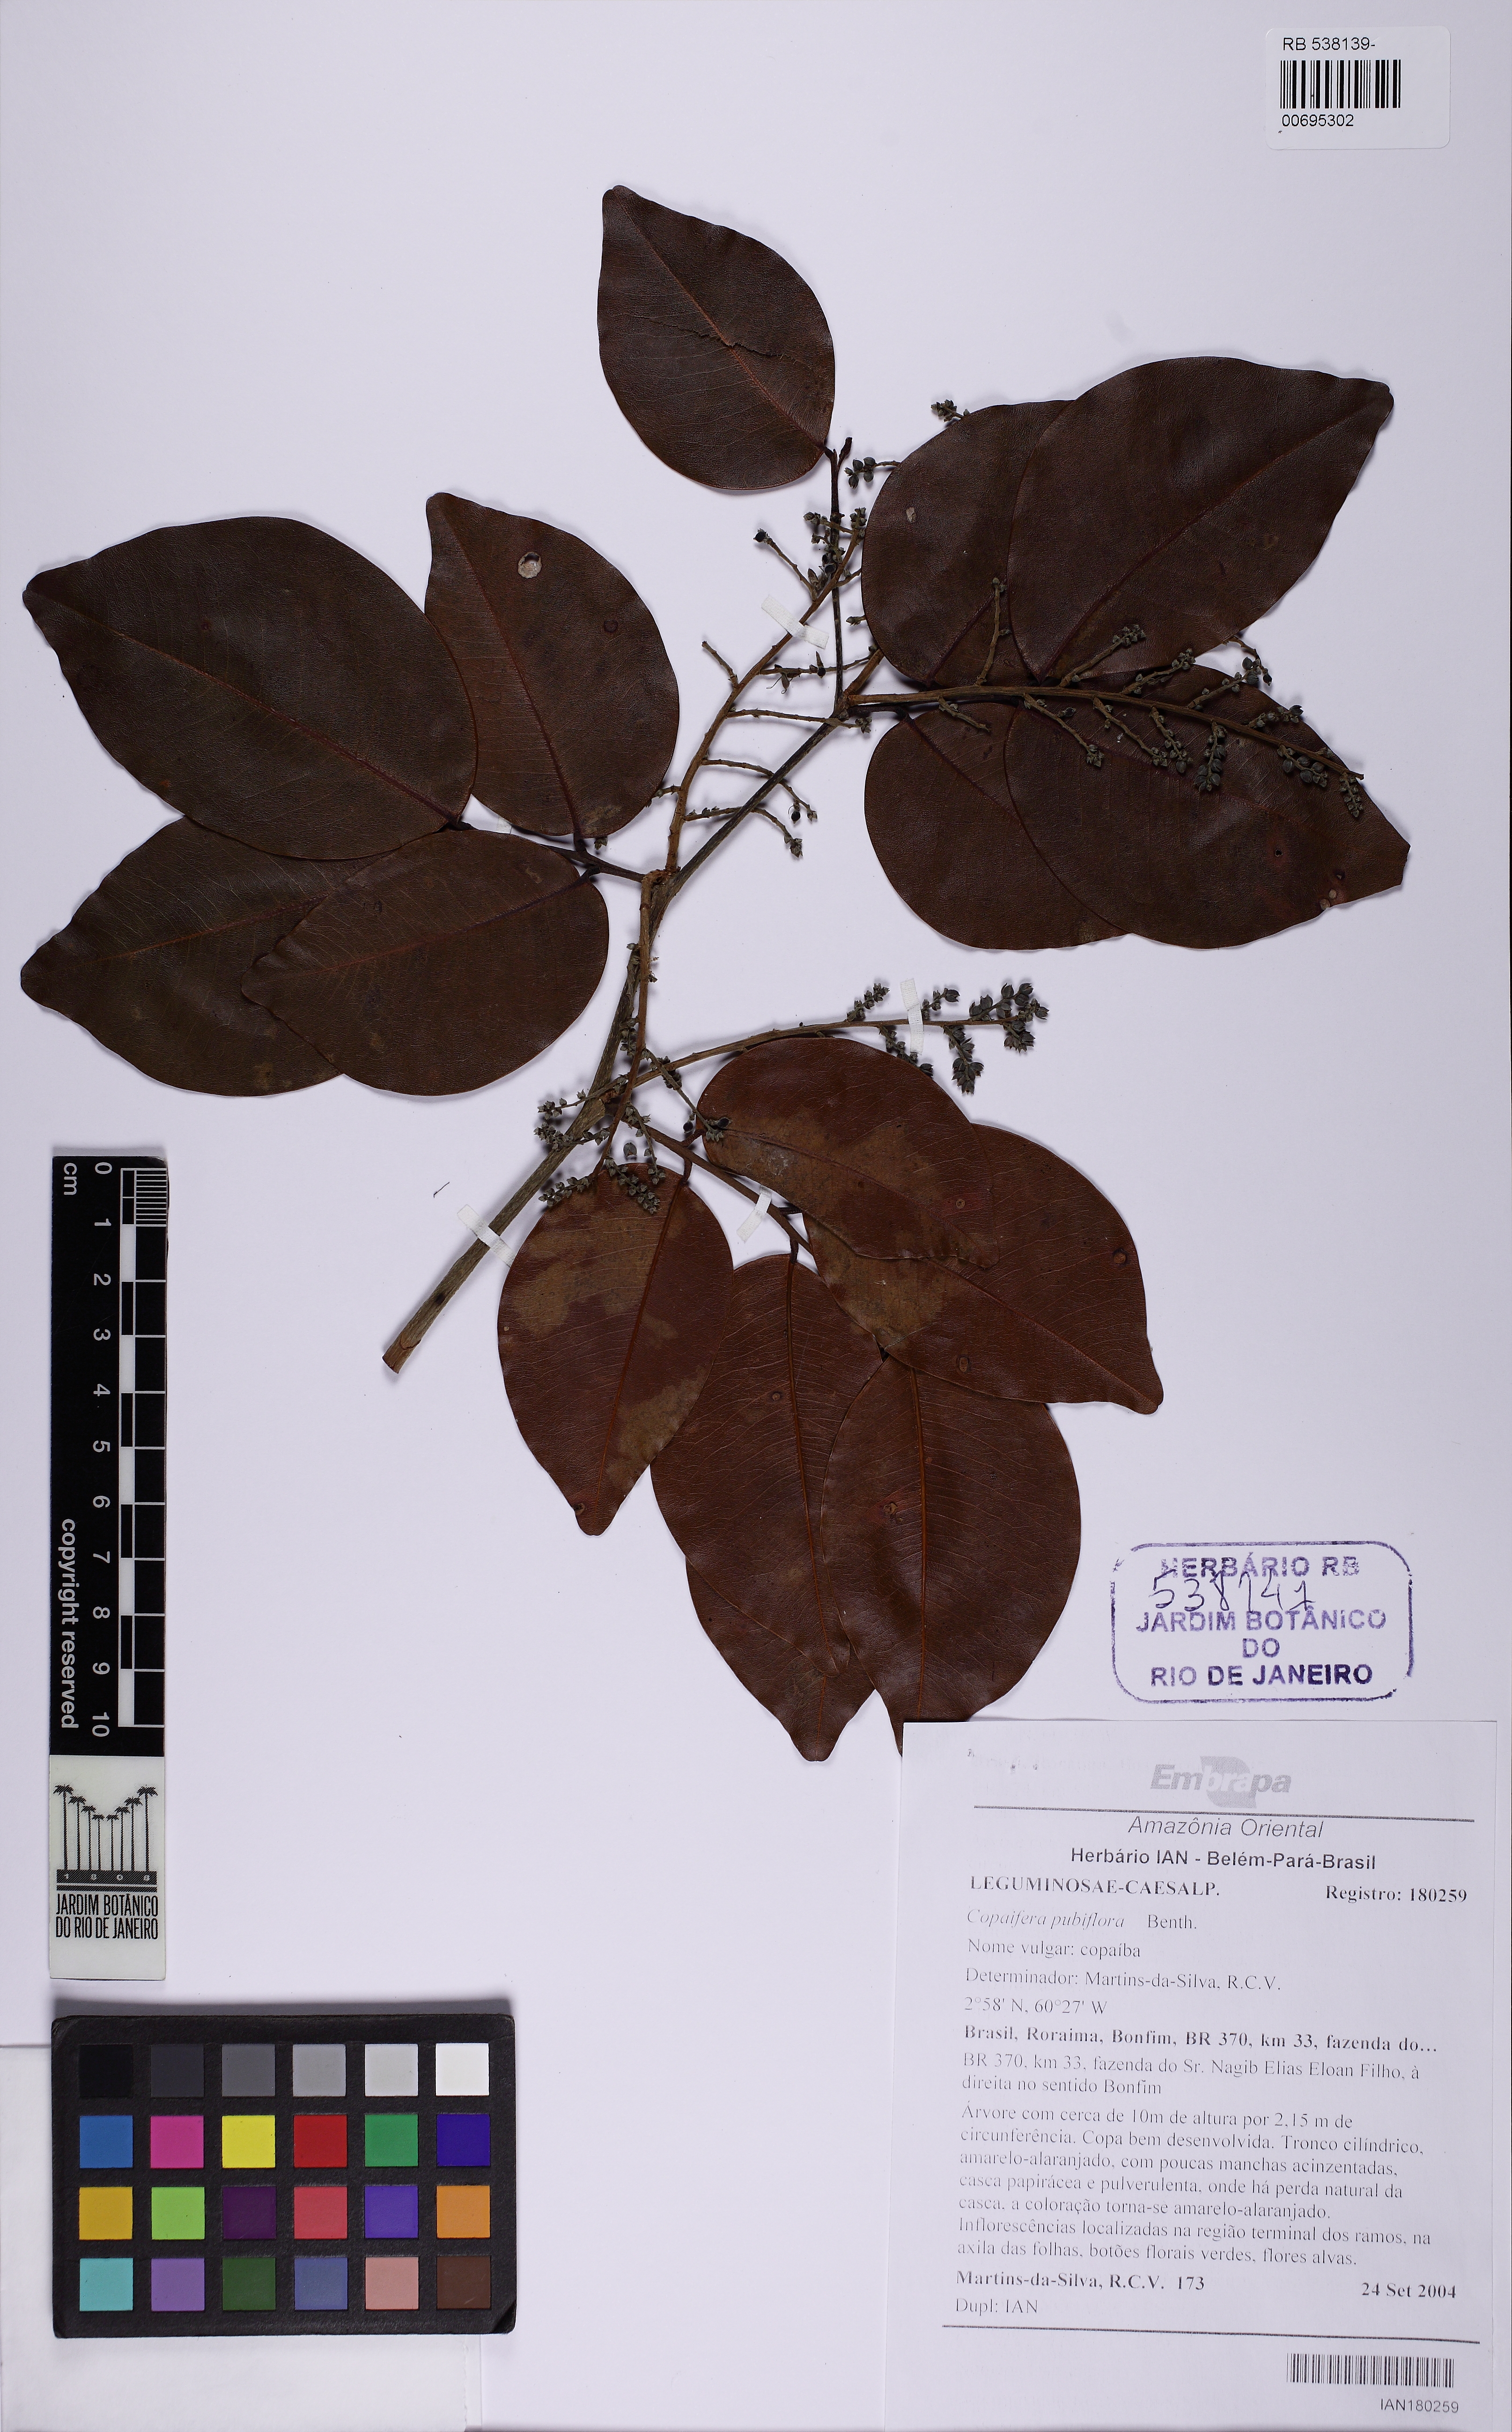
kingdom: Plantae
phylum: Tracheophyta
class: Magnoliopsida
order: Fabales
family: Fabaceae
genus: Copaifera
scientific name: Copaifera copaibo
